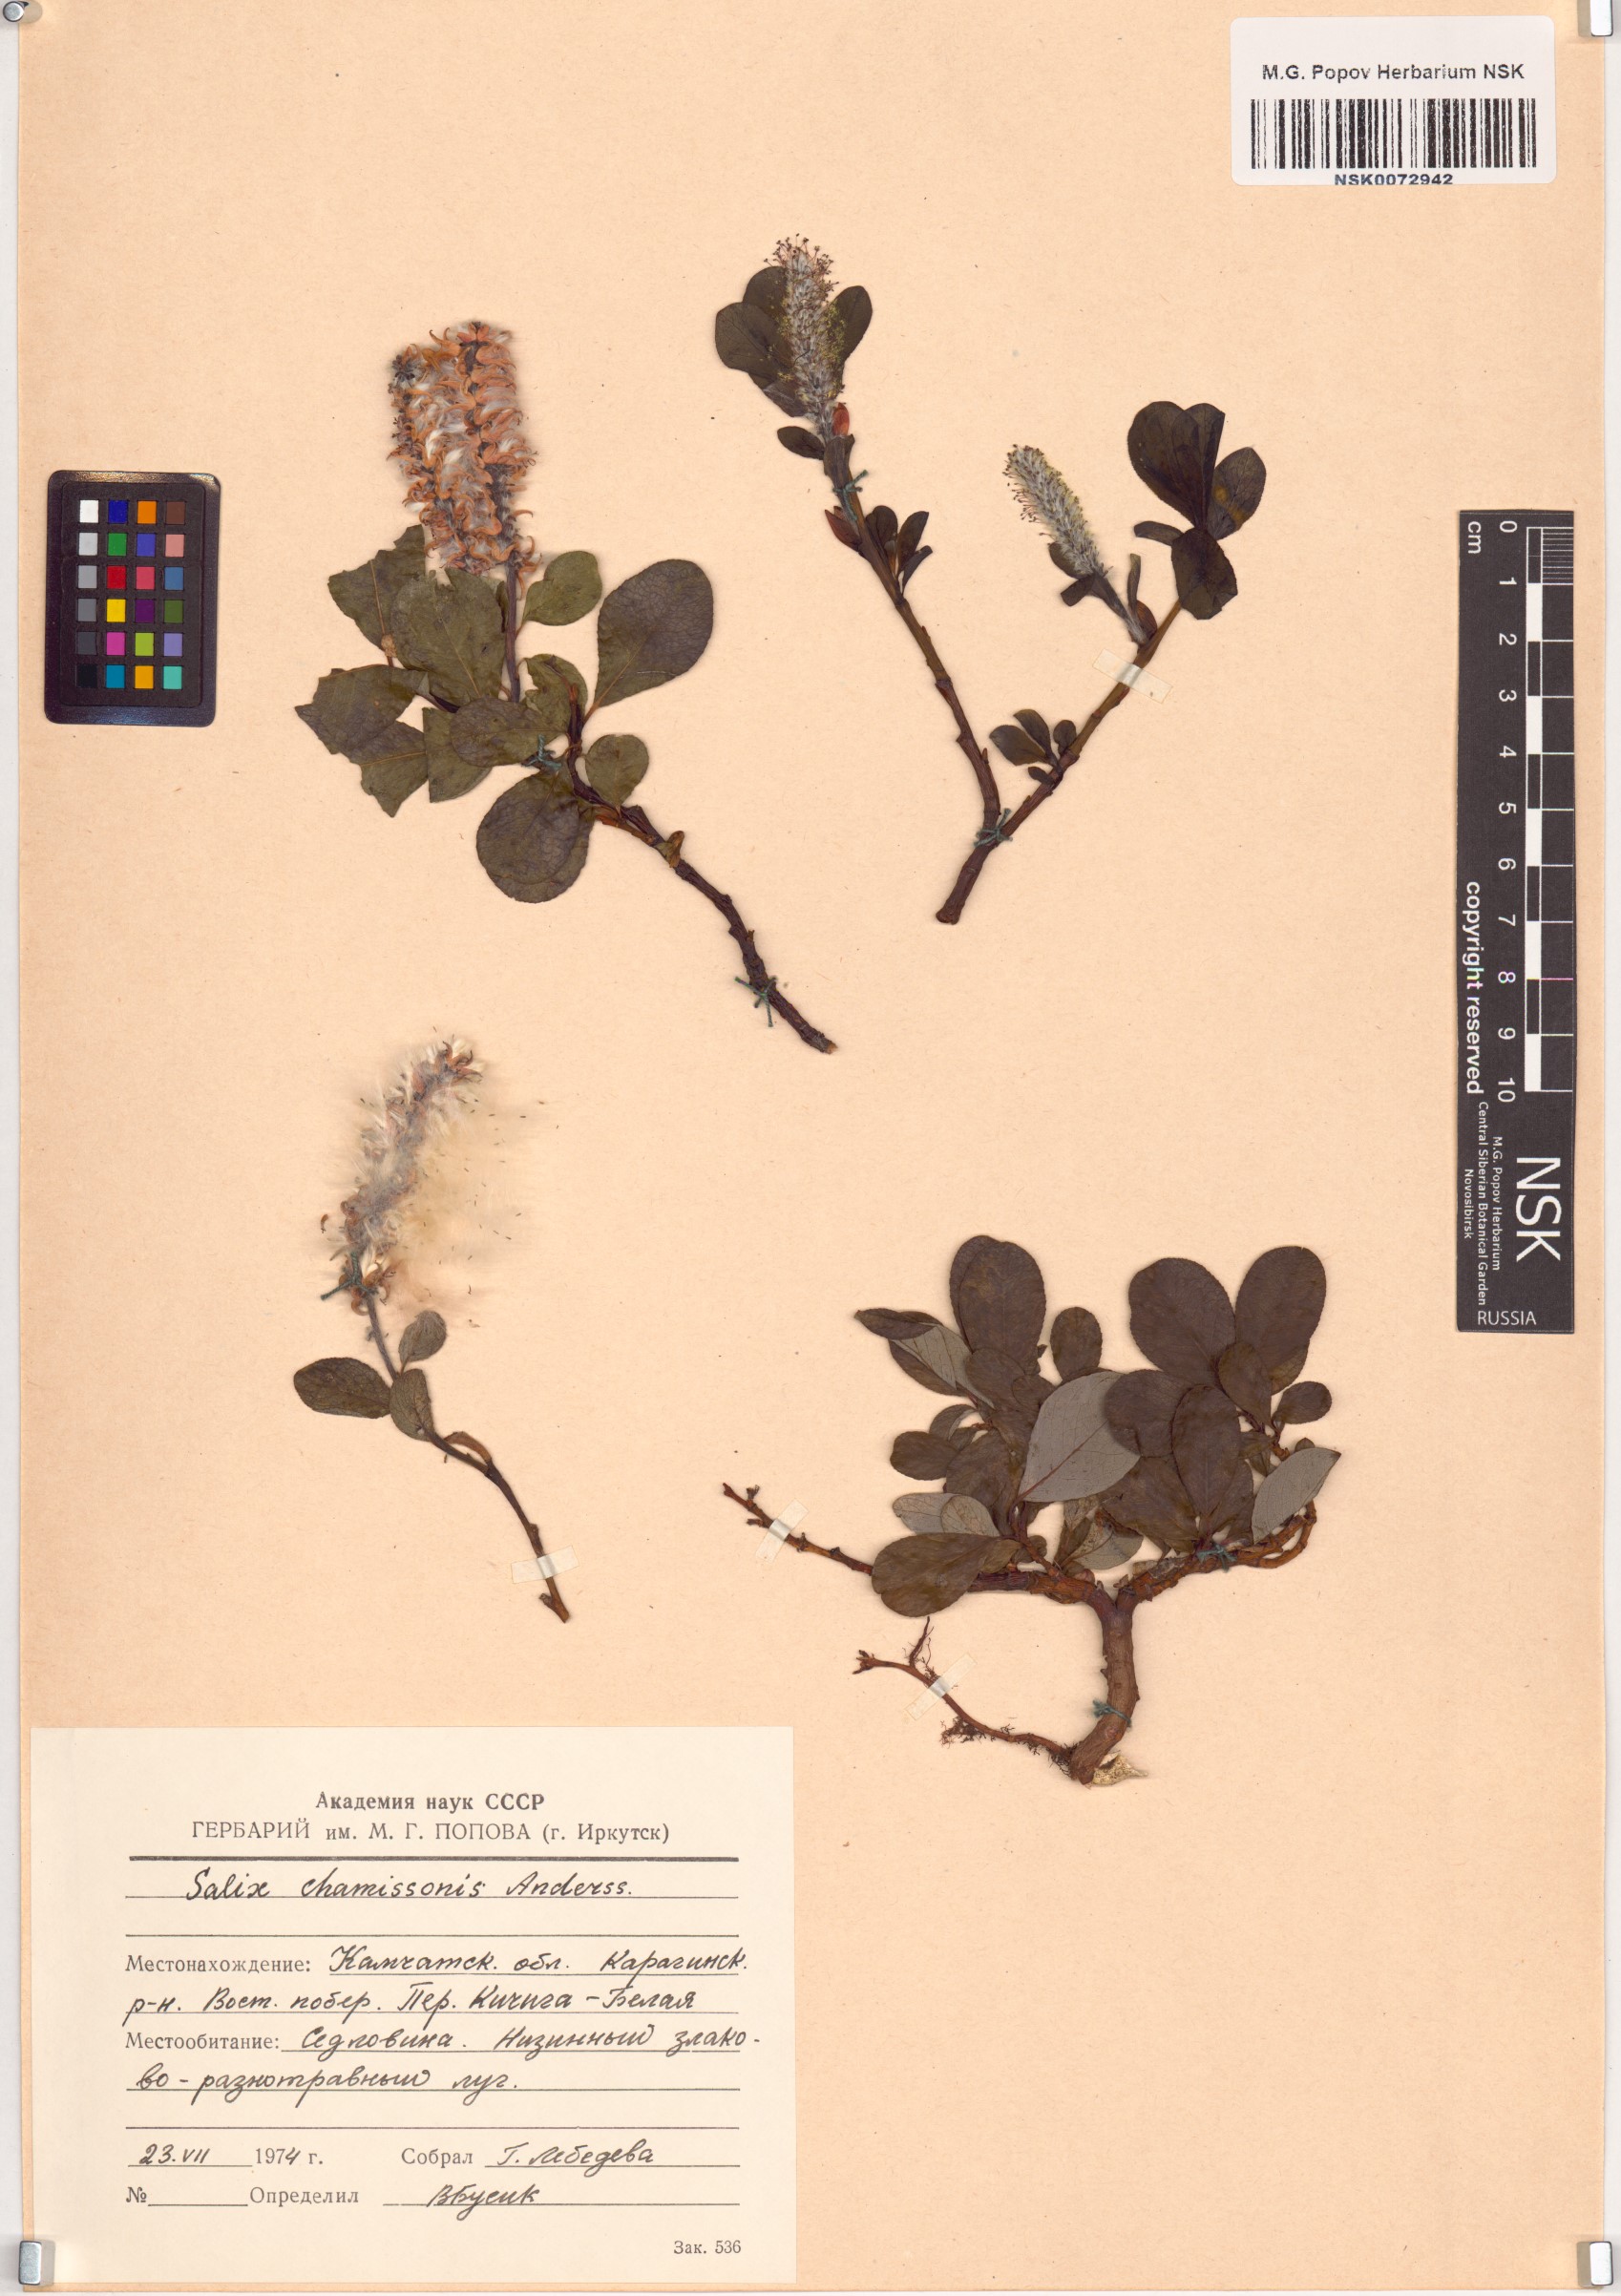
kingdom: Plantae
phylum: Tracheophyta
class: Magnoliopsida
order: Malpighiales
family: Salicaceae
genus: Salix
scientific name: Salix chamissonis
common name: Chamisso willow
